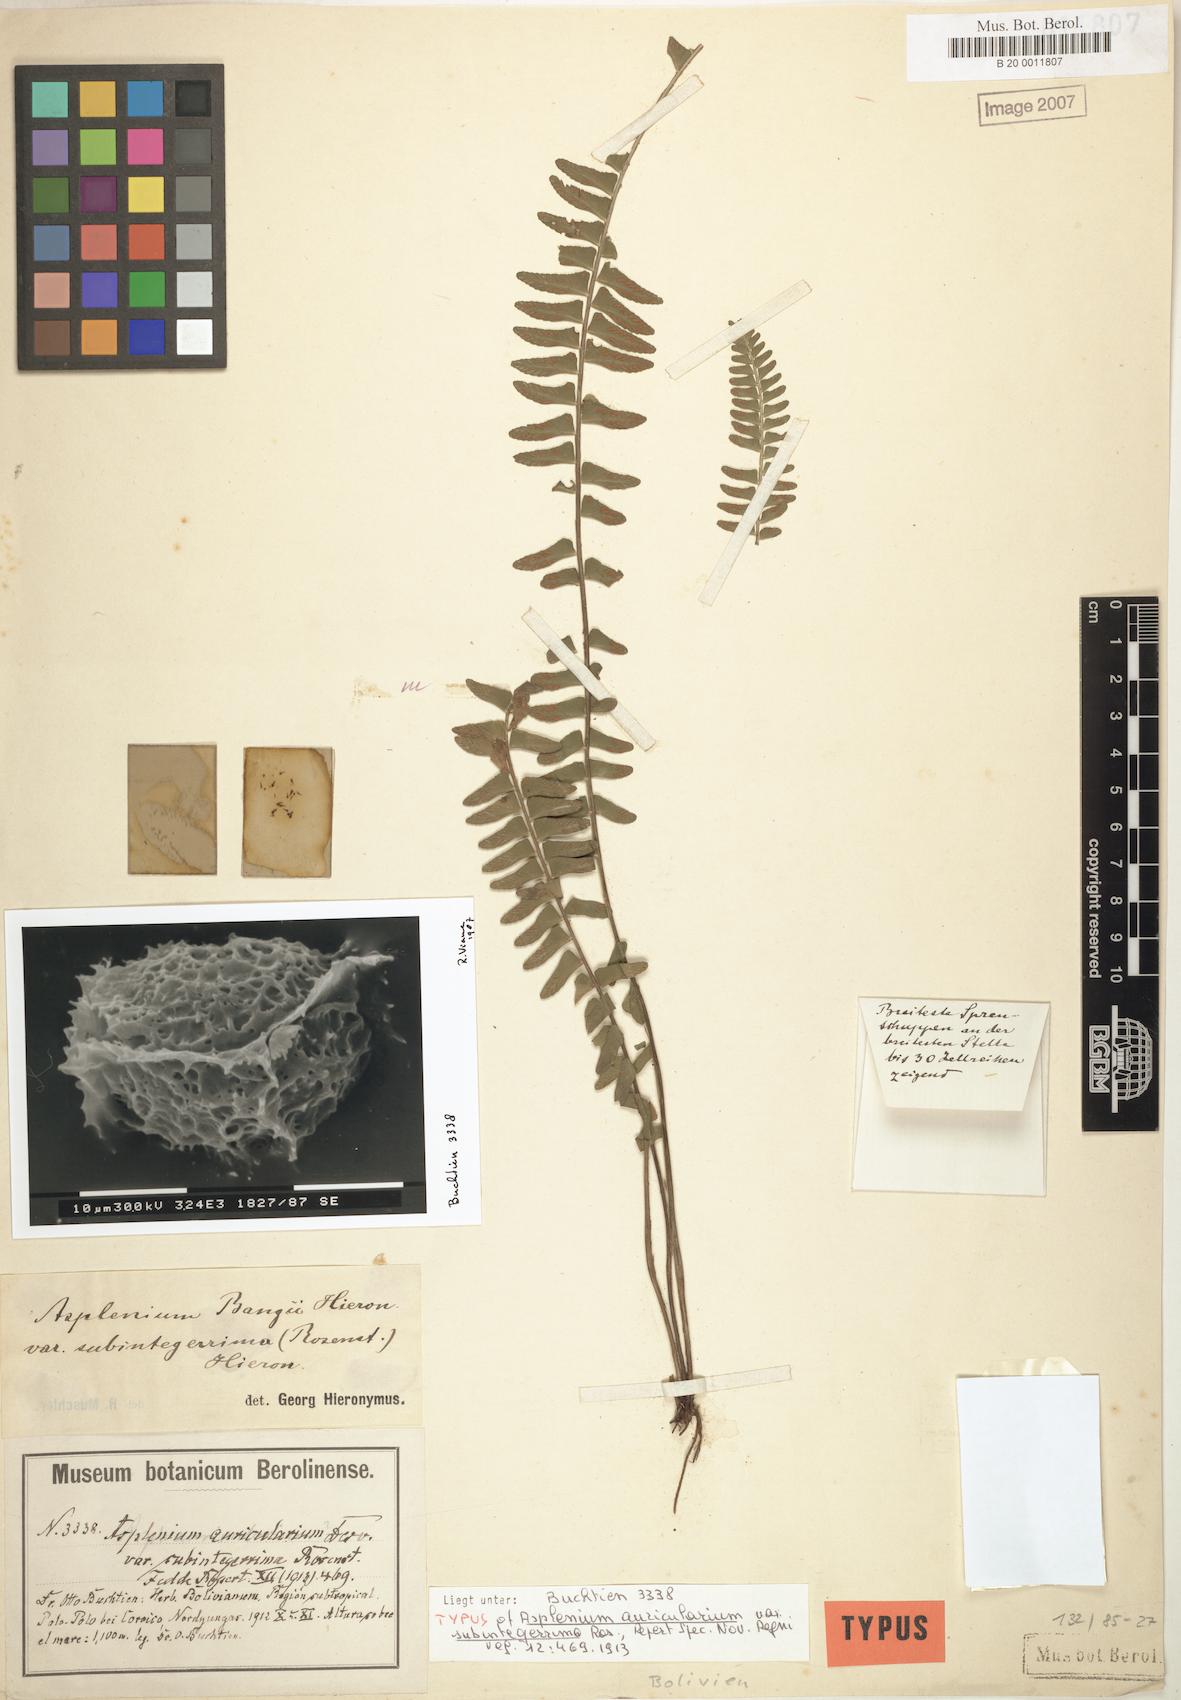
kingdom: Plantae
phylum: Tracheophyta
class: Polypodiopsida
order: Polypodiales
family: Aspleniaceae
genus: Asplenium
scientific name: Asplenium auriculatum
